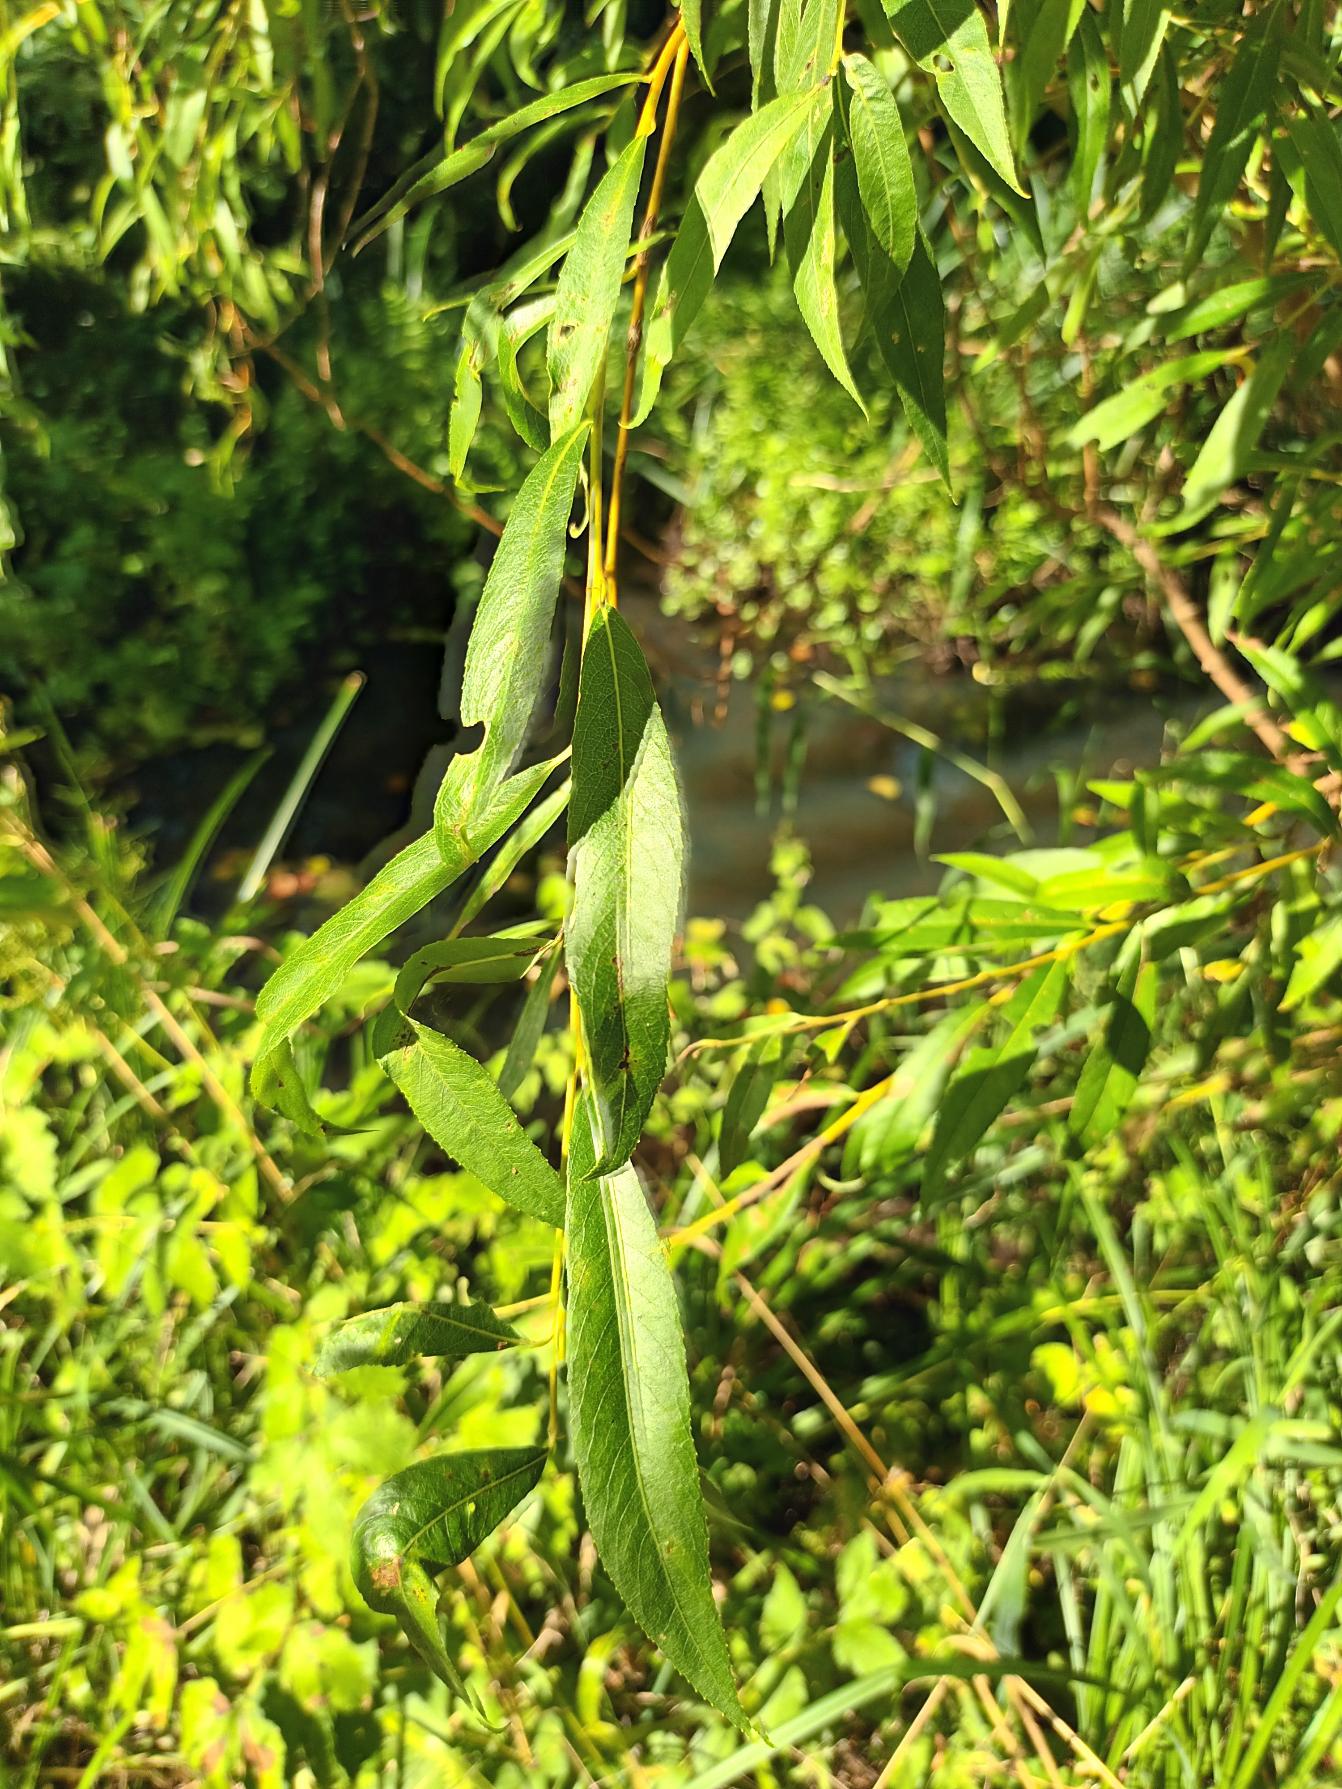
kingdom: Plantae
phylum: Tracheophyta
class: Magnoliopsida
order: Malpighiales
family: Salicaceae
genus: Salix
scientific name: Salix pendulina
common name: Fontæne-pil
